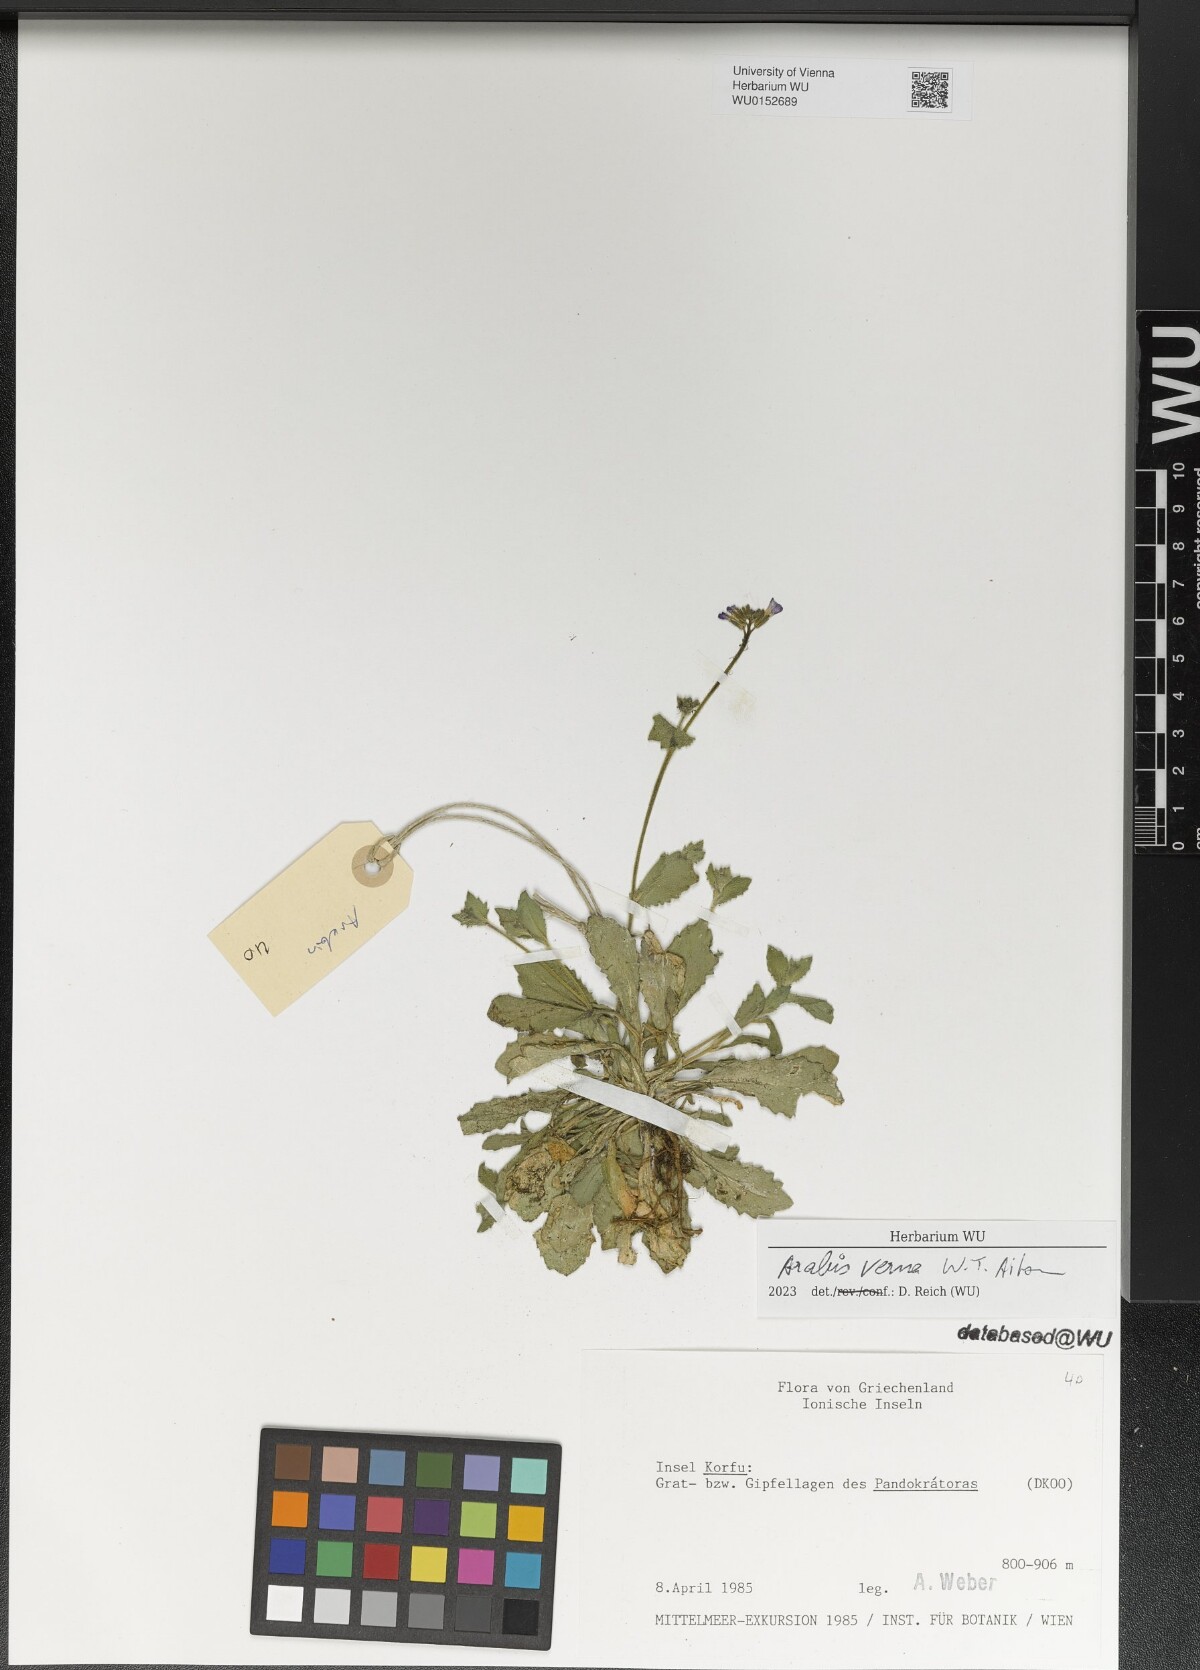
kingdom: Plantae
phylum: Tracheophyta
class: Magnoliopsida
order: Brassicales
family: Brassicaceae
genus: Arabis
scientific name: Arabis verna
